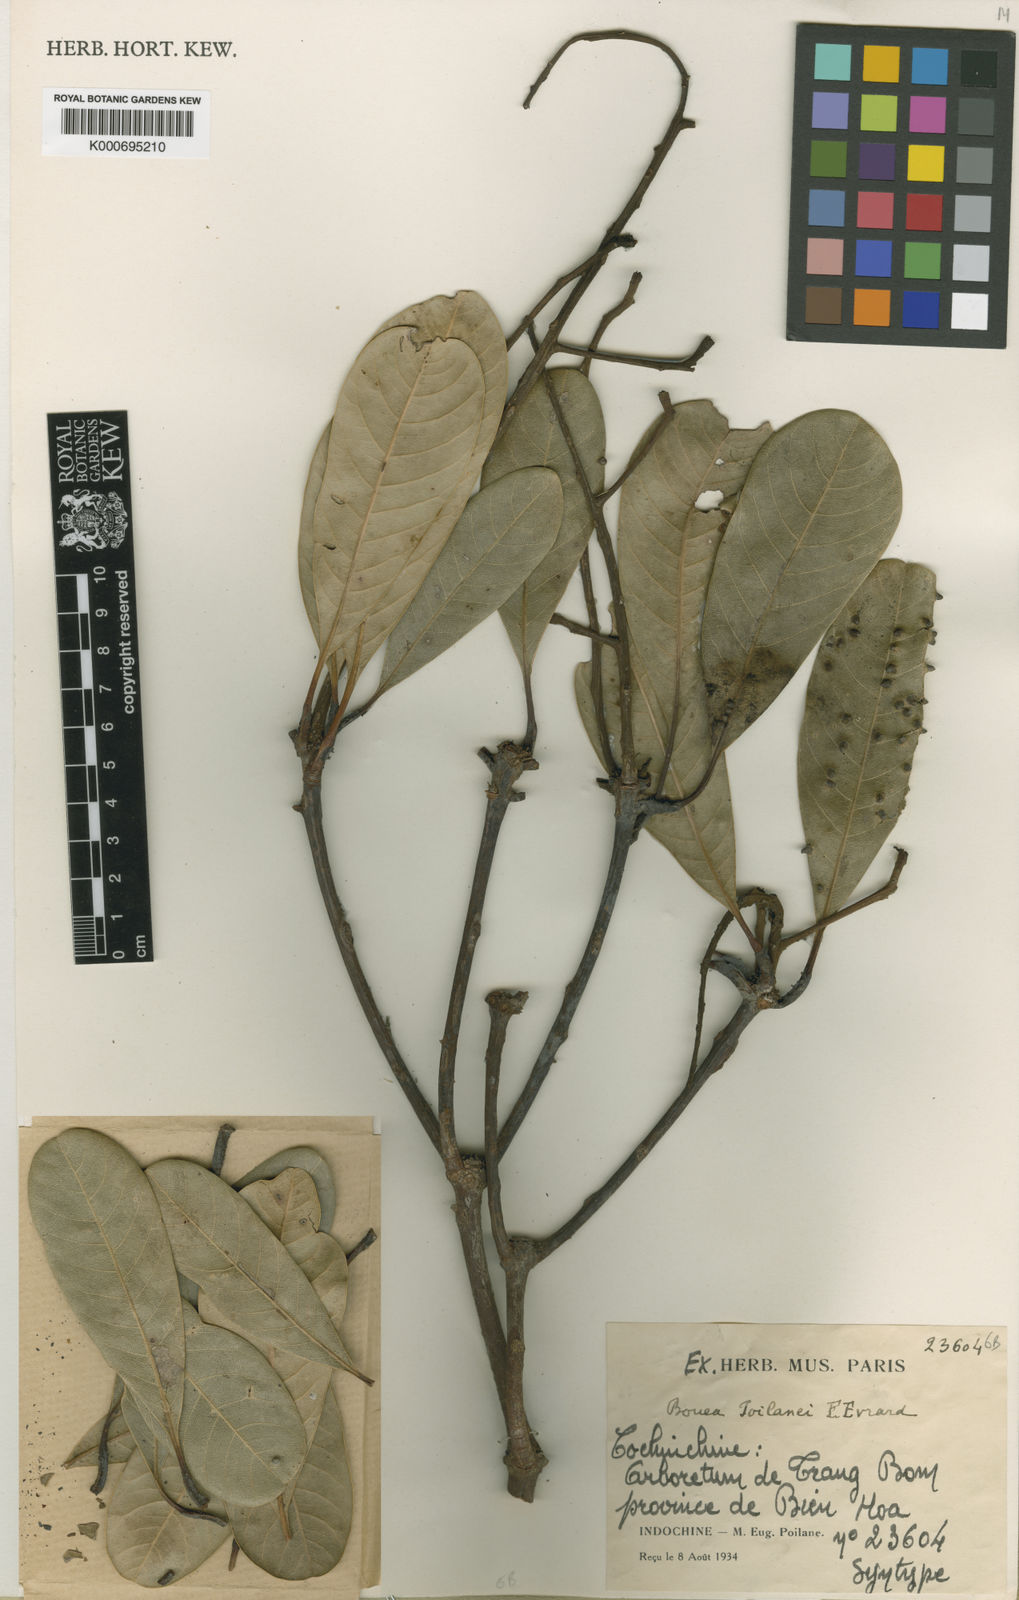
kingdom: Plantae
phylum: Tracheophyta
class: Magnoliopsida
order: Sapindales
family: Anacardiaceae
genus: Bouea
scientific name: Bouea poilanei
